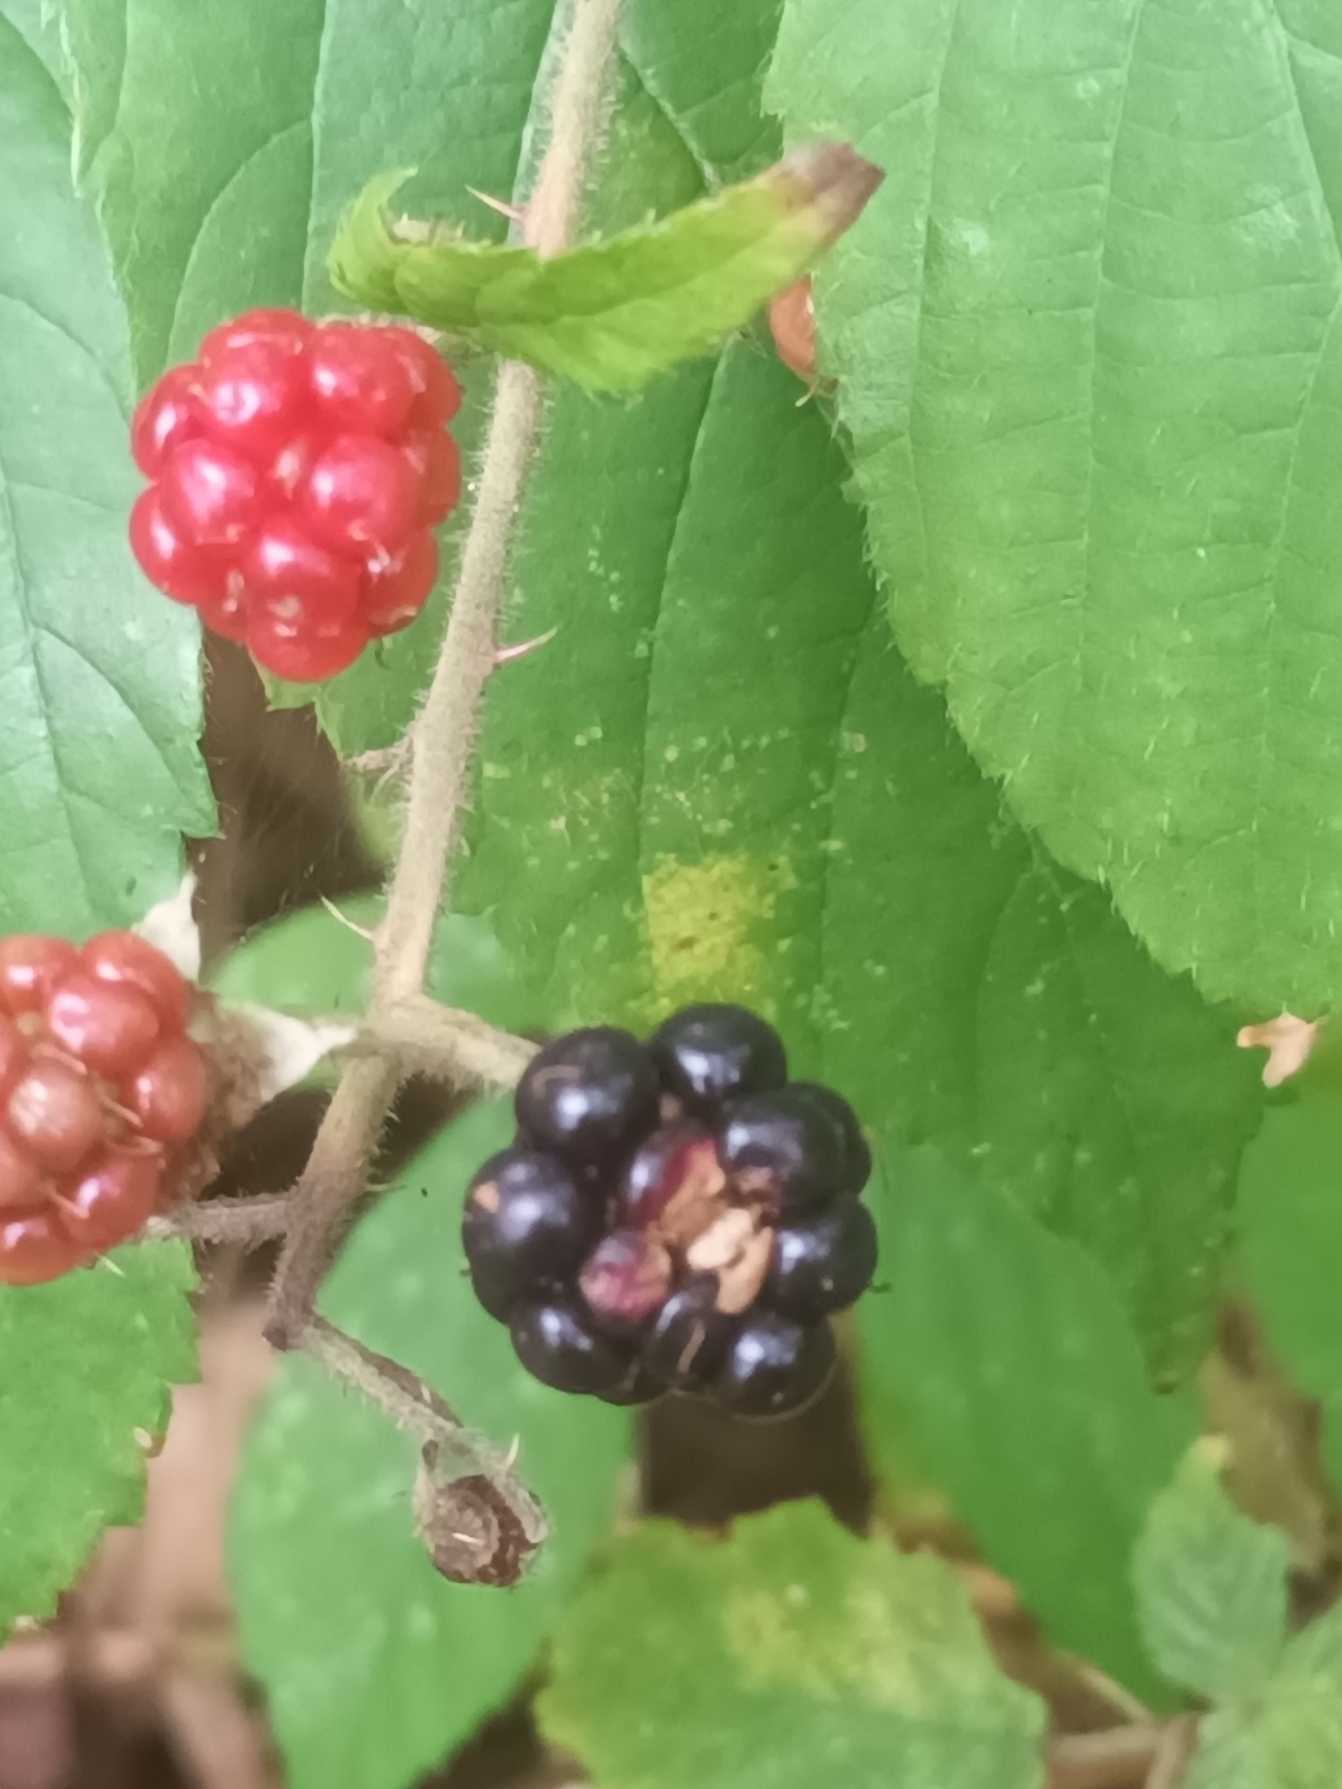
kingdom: Plantae
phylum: Tracheophyta
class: Magnoliopsida
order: Rosales
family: Rosaceae
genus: Rubus
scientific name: Rubus sciocharis
